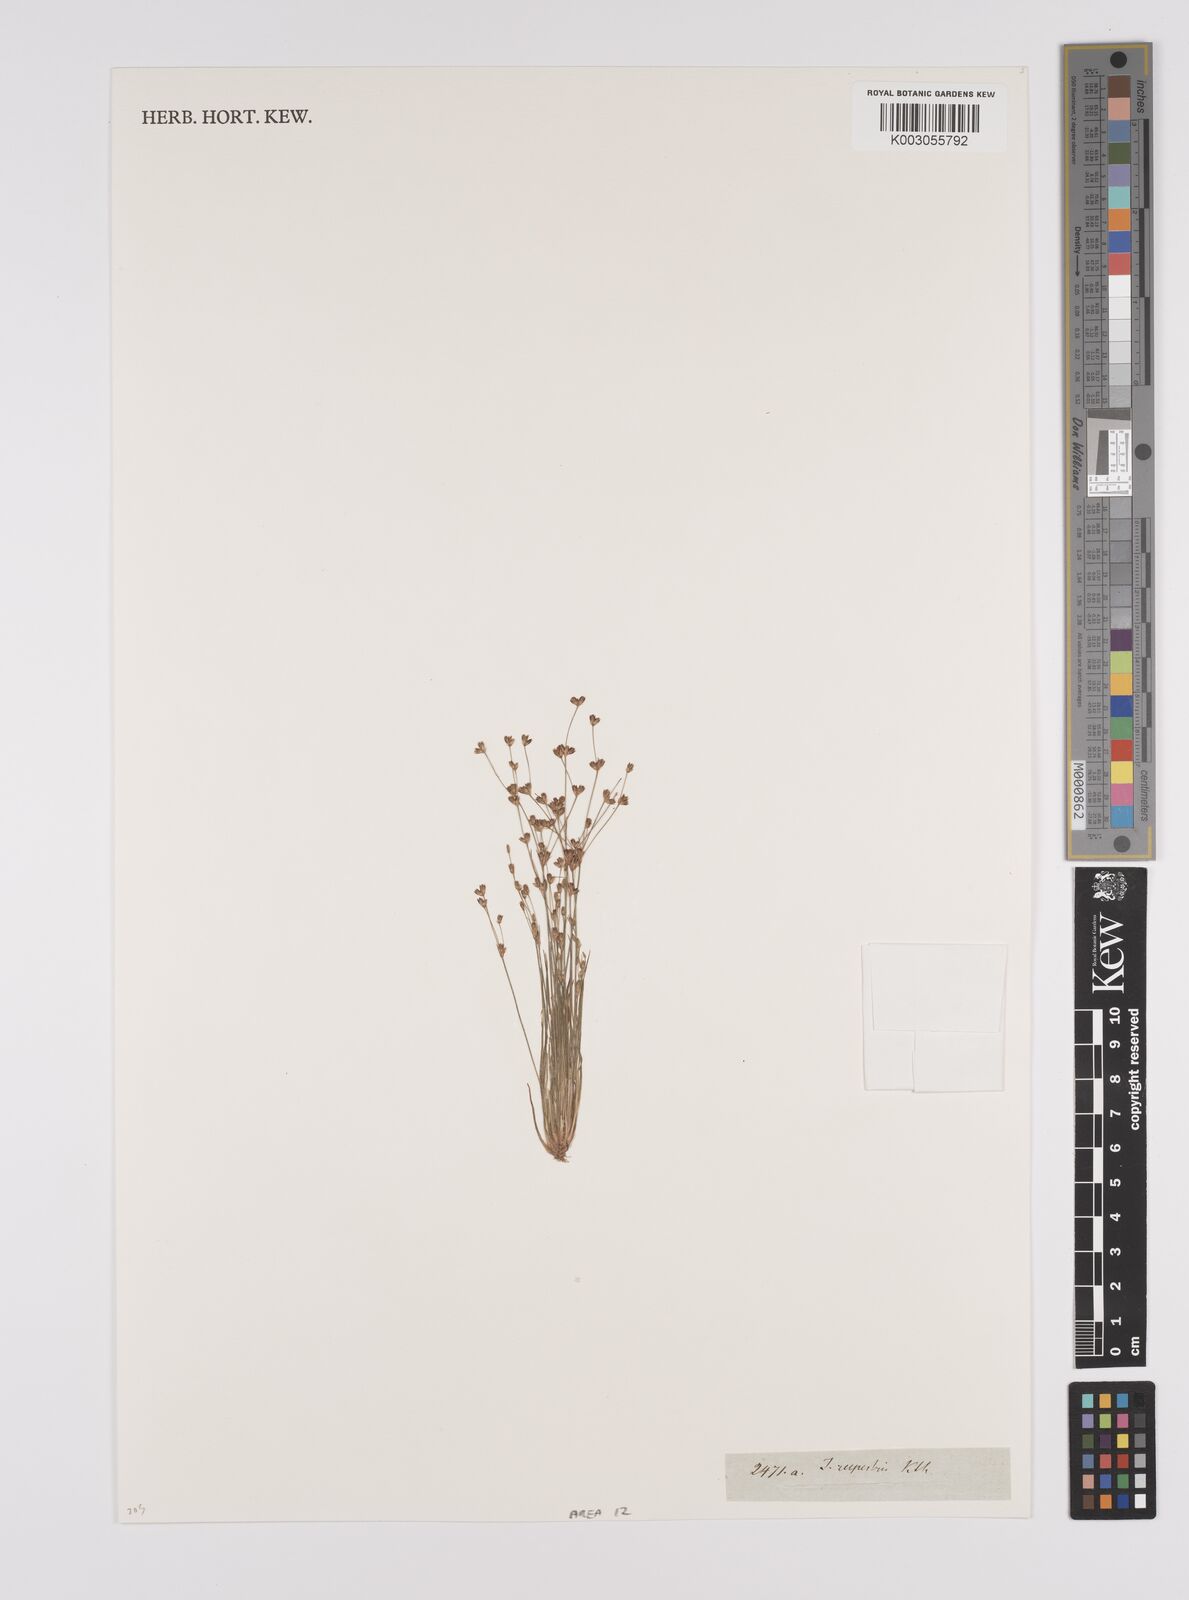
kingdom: Plantae
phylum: Tracheophyta
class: Liliopsida
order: Poales
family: Juncaceae
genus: Juncus
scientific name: Juncus rupestris
